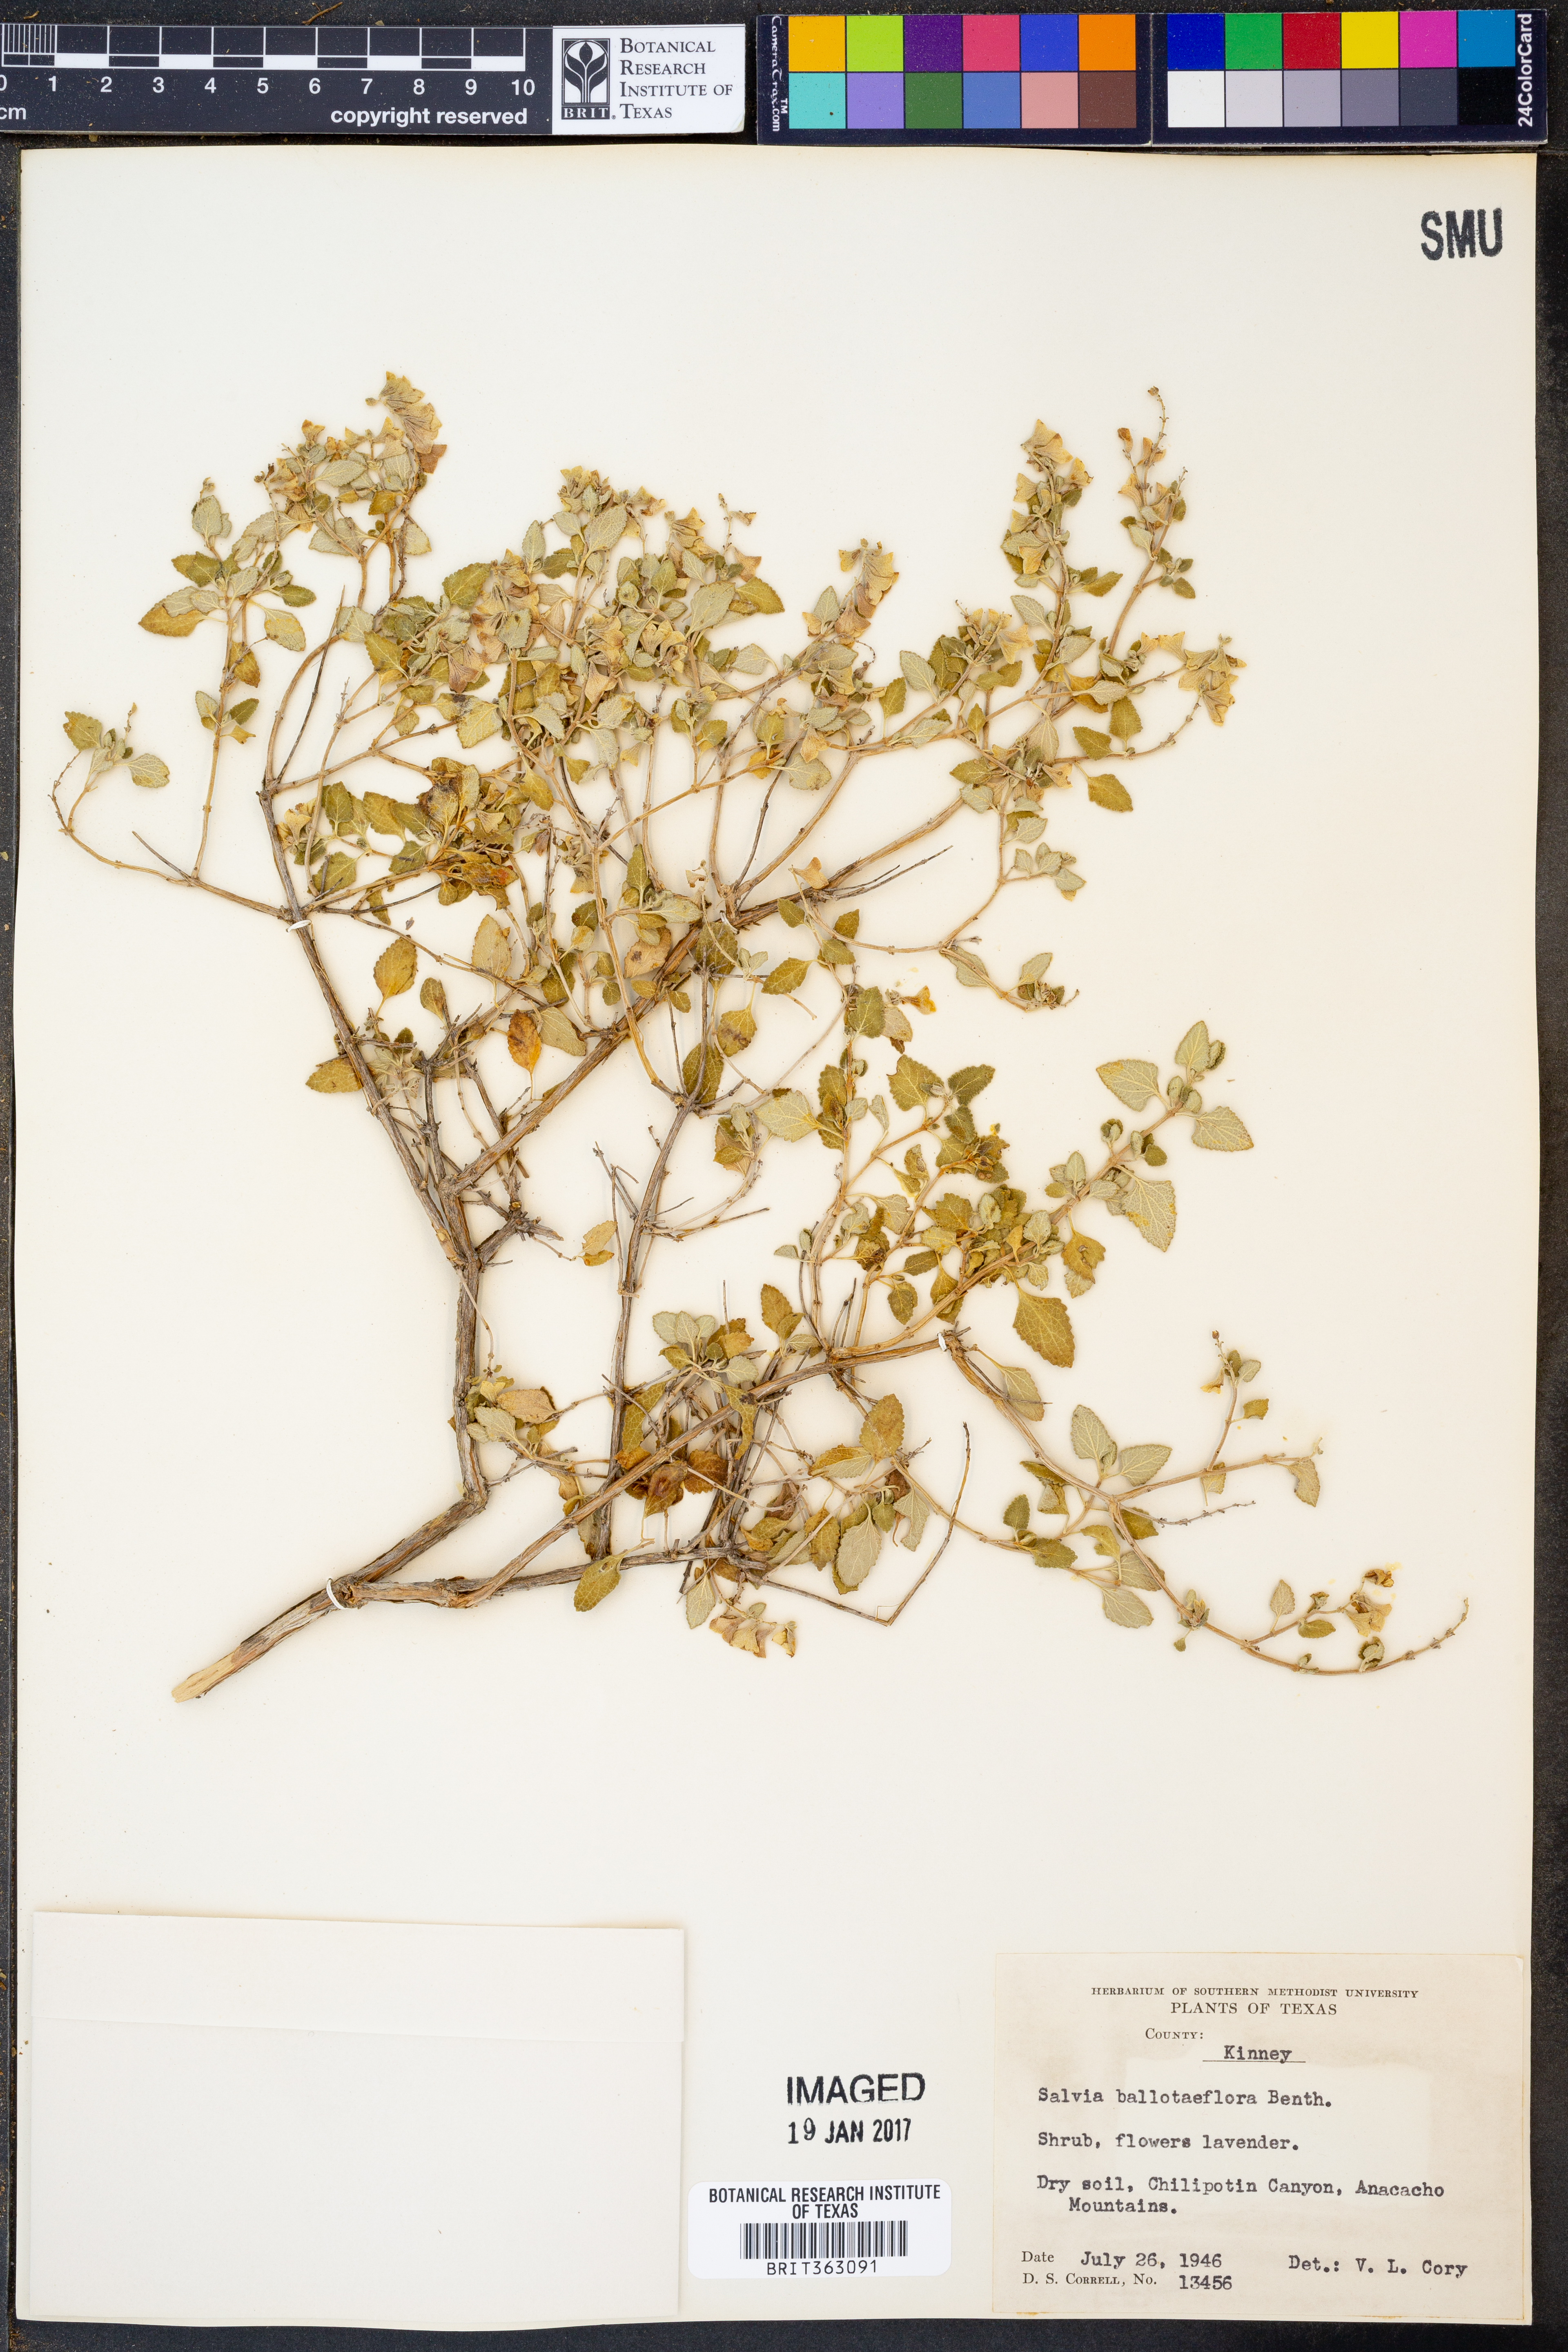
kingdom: Plantae
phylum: Tracheophyta
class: Magnoliopsida
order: Lamiales
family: Lamiaceae
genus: Salvia
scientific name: Salvia ballotiflora
